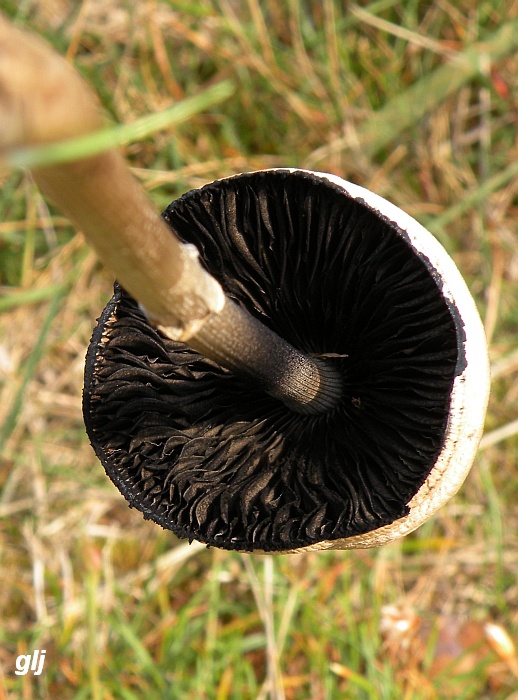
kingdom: Fungi
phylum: Basidiomycota
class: Agaricomycetes
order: Agaricales
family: Bolbitiaceae
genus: Panaeolus
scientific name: Panaeolus semiovatus
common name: ring-glanshat
